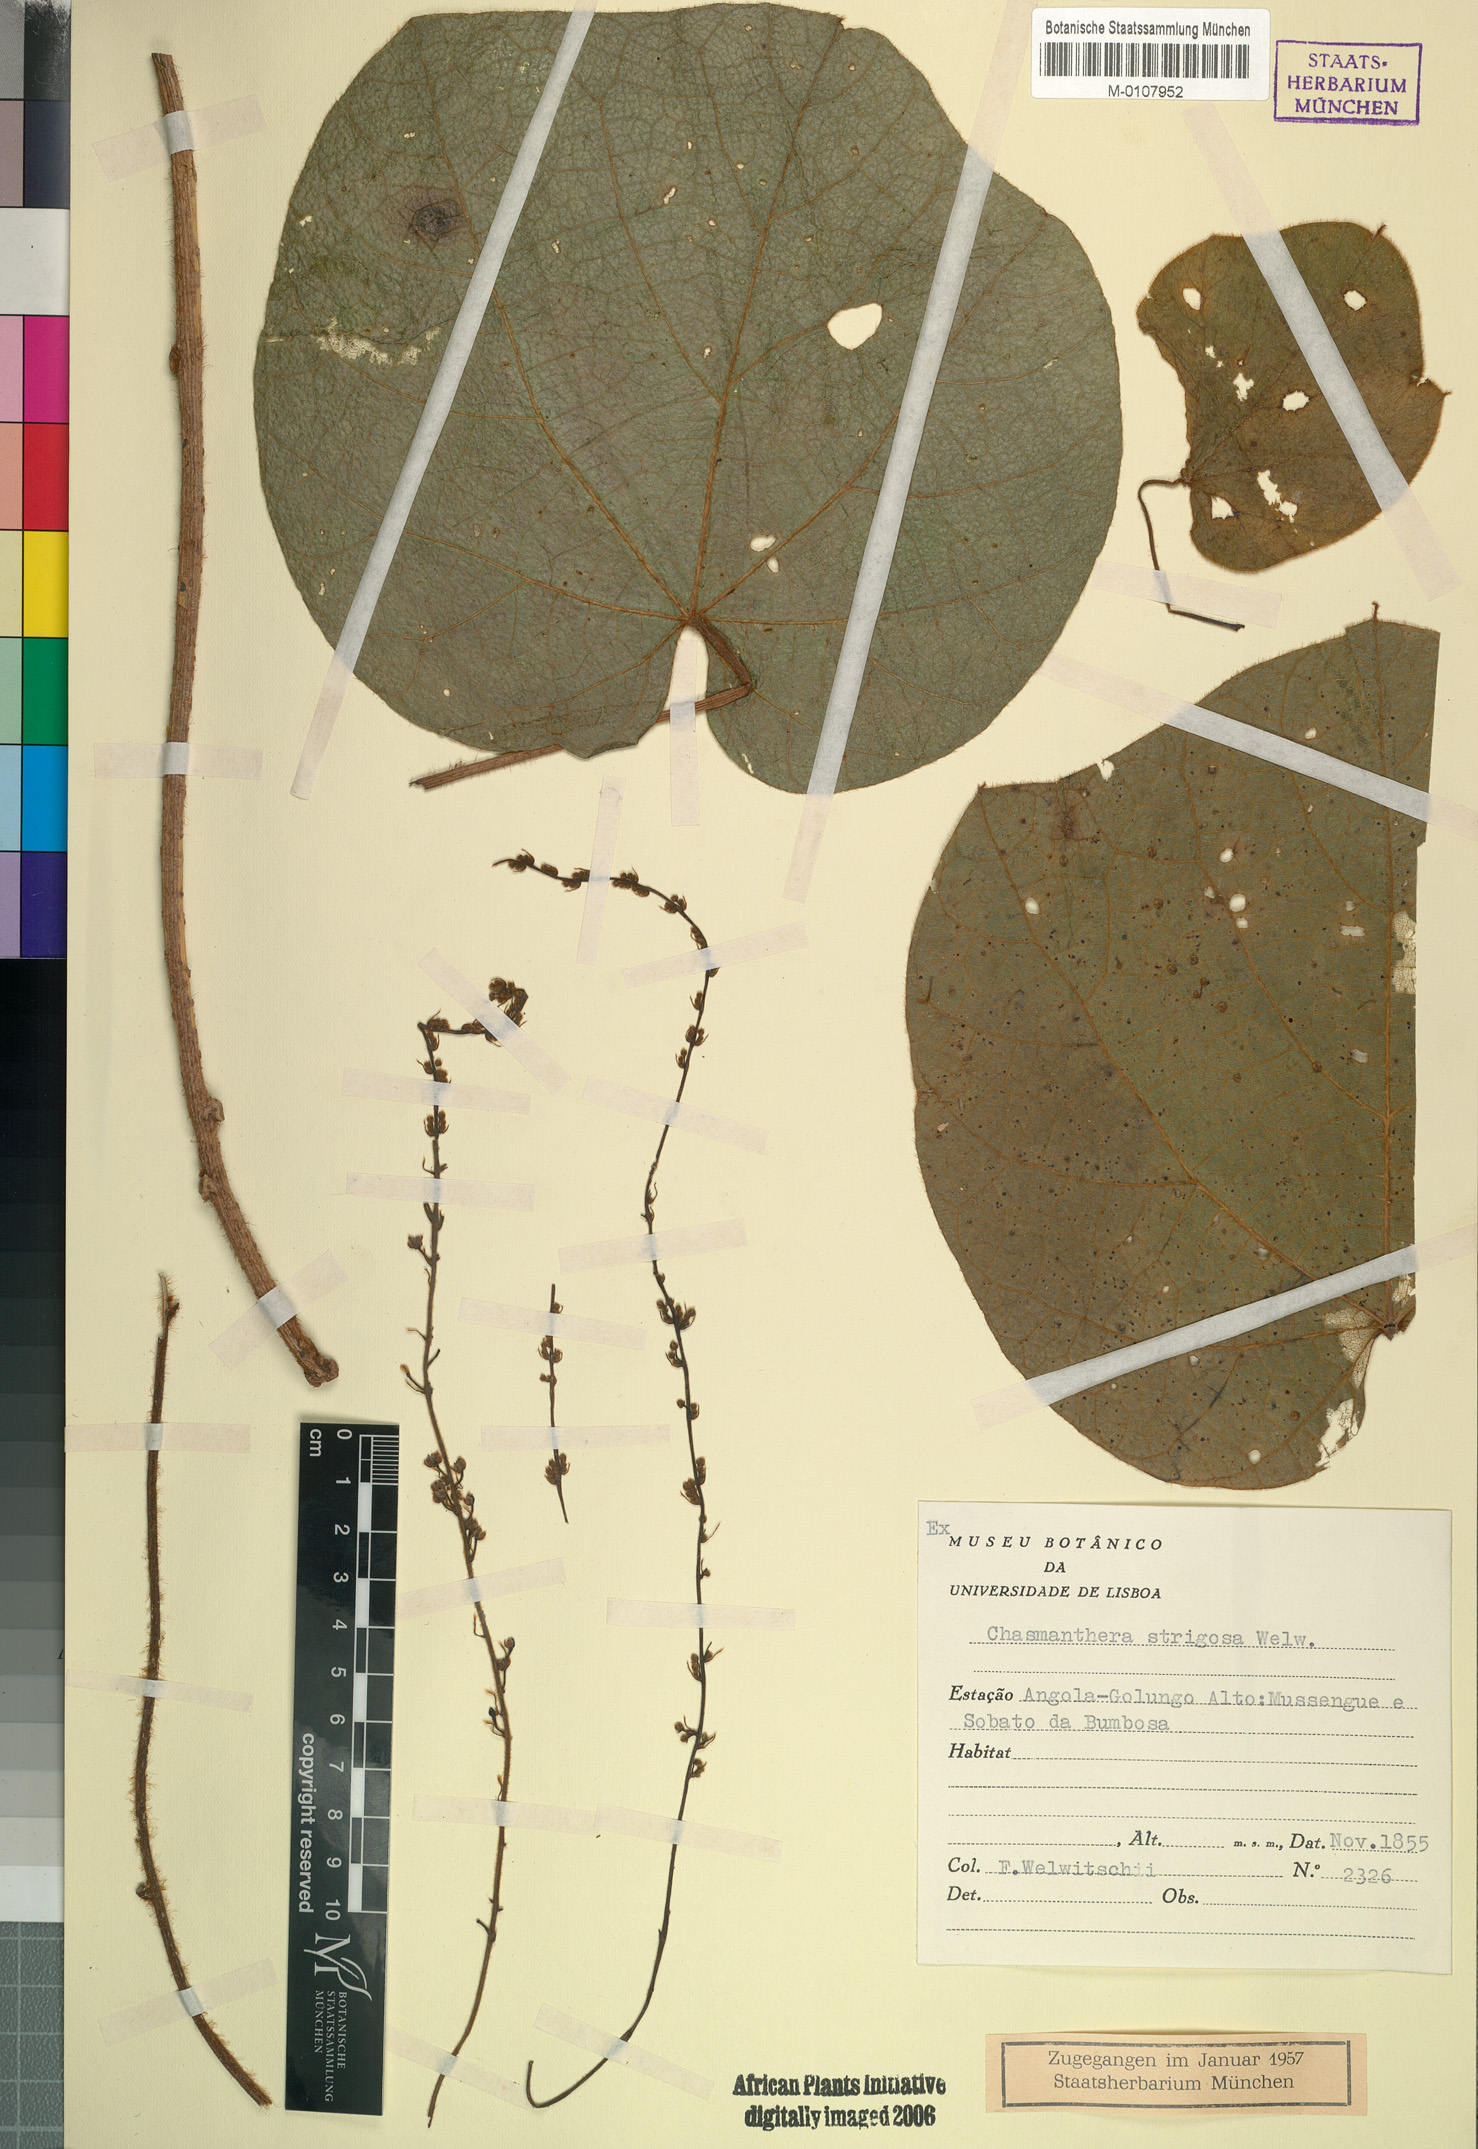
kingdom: Plantae
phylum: Tracheophyta
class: Magnoliopsida
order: Ranunculales
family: Menispermaceae
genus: Chasmanthera
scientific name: Chasmanthera welwitschii
